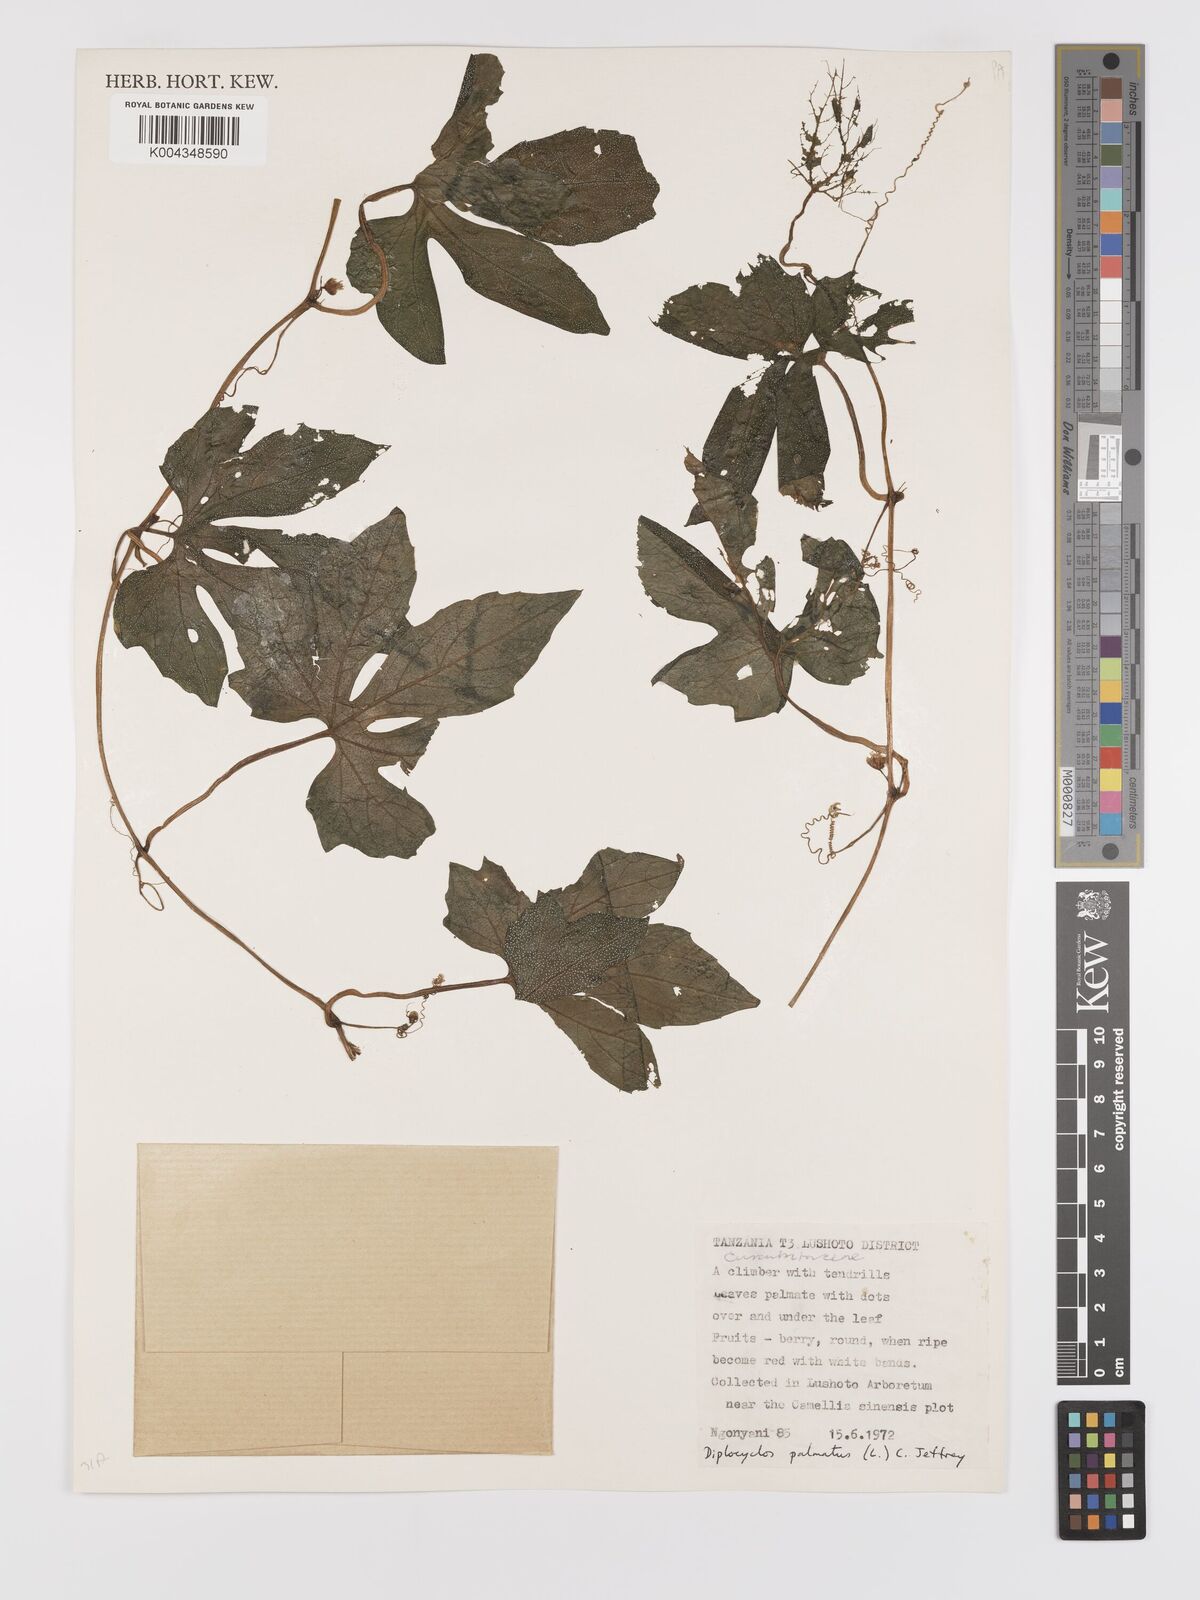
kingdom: Plantae
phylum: Tracheophyta
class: Magnoliopsida
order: Cucurbitales
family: Cucurbitaceae
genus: Diplocyclos
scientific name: Diplocyclos palmatus
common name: Striped-cucumber
